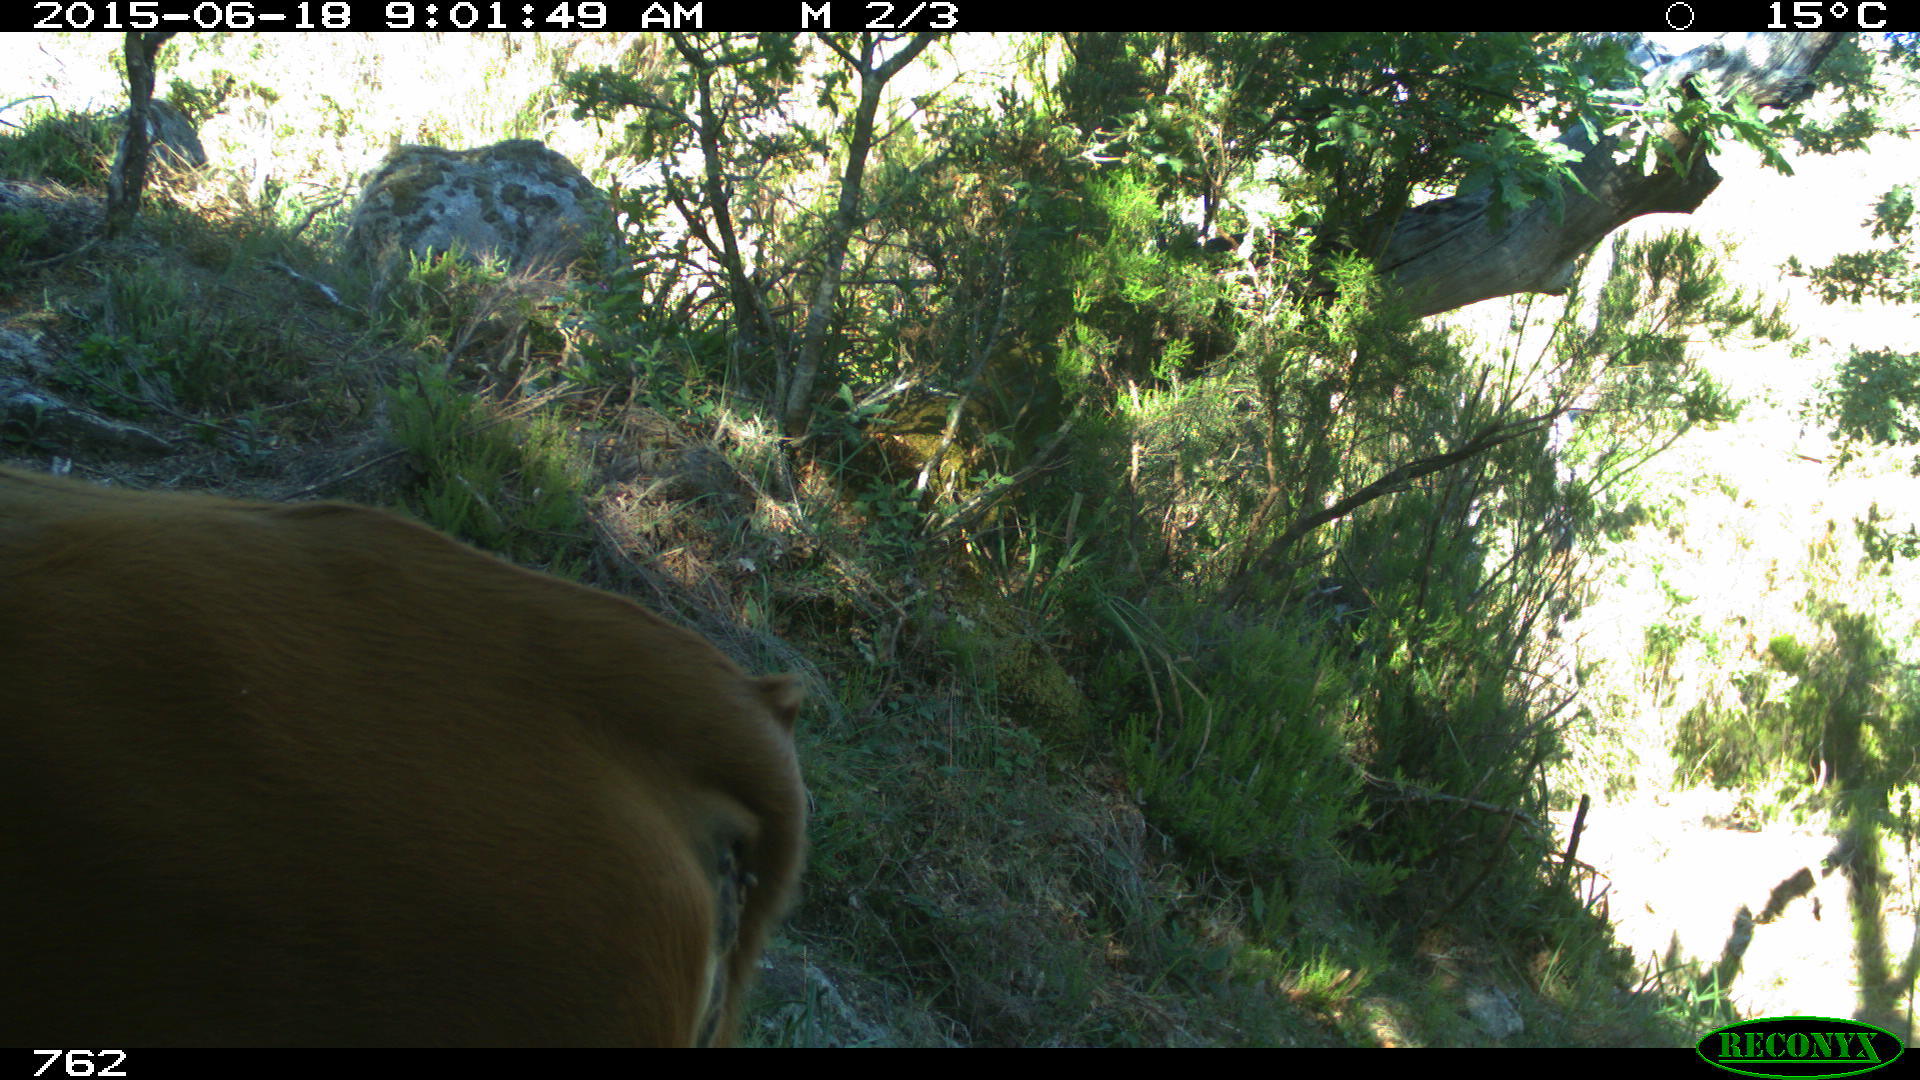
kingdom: Animalia
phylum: Chordata
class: Mammalia
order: Artiodactyla
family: Bovidae
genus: Bos
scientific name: Bos taurus
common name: Domesticated cattle
